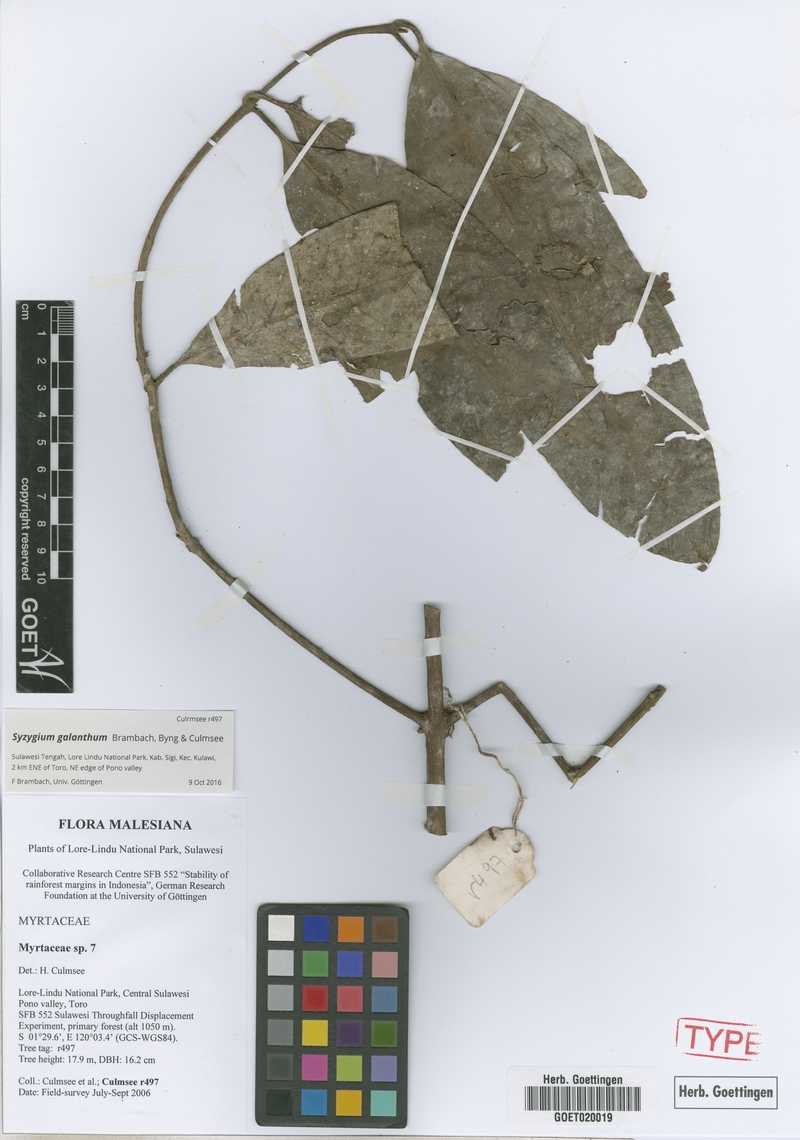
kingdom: Plantae
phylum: Tracheophyta
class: Magnoliopsida
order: Myrtales
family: Myrtaceae
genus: Syzygium
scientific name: Syzygium galanthum
